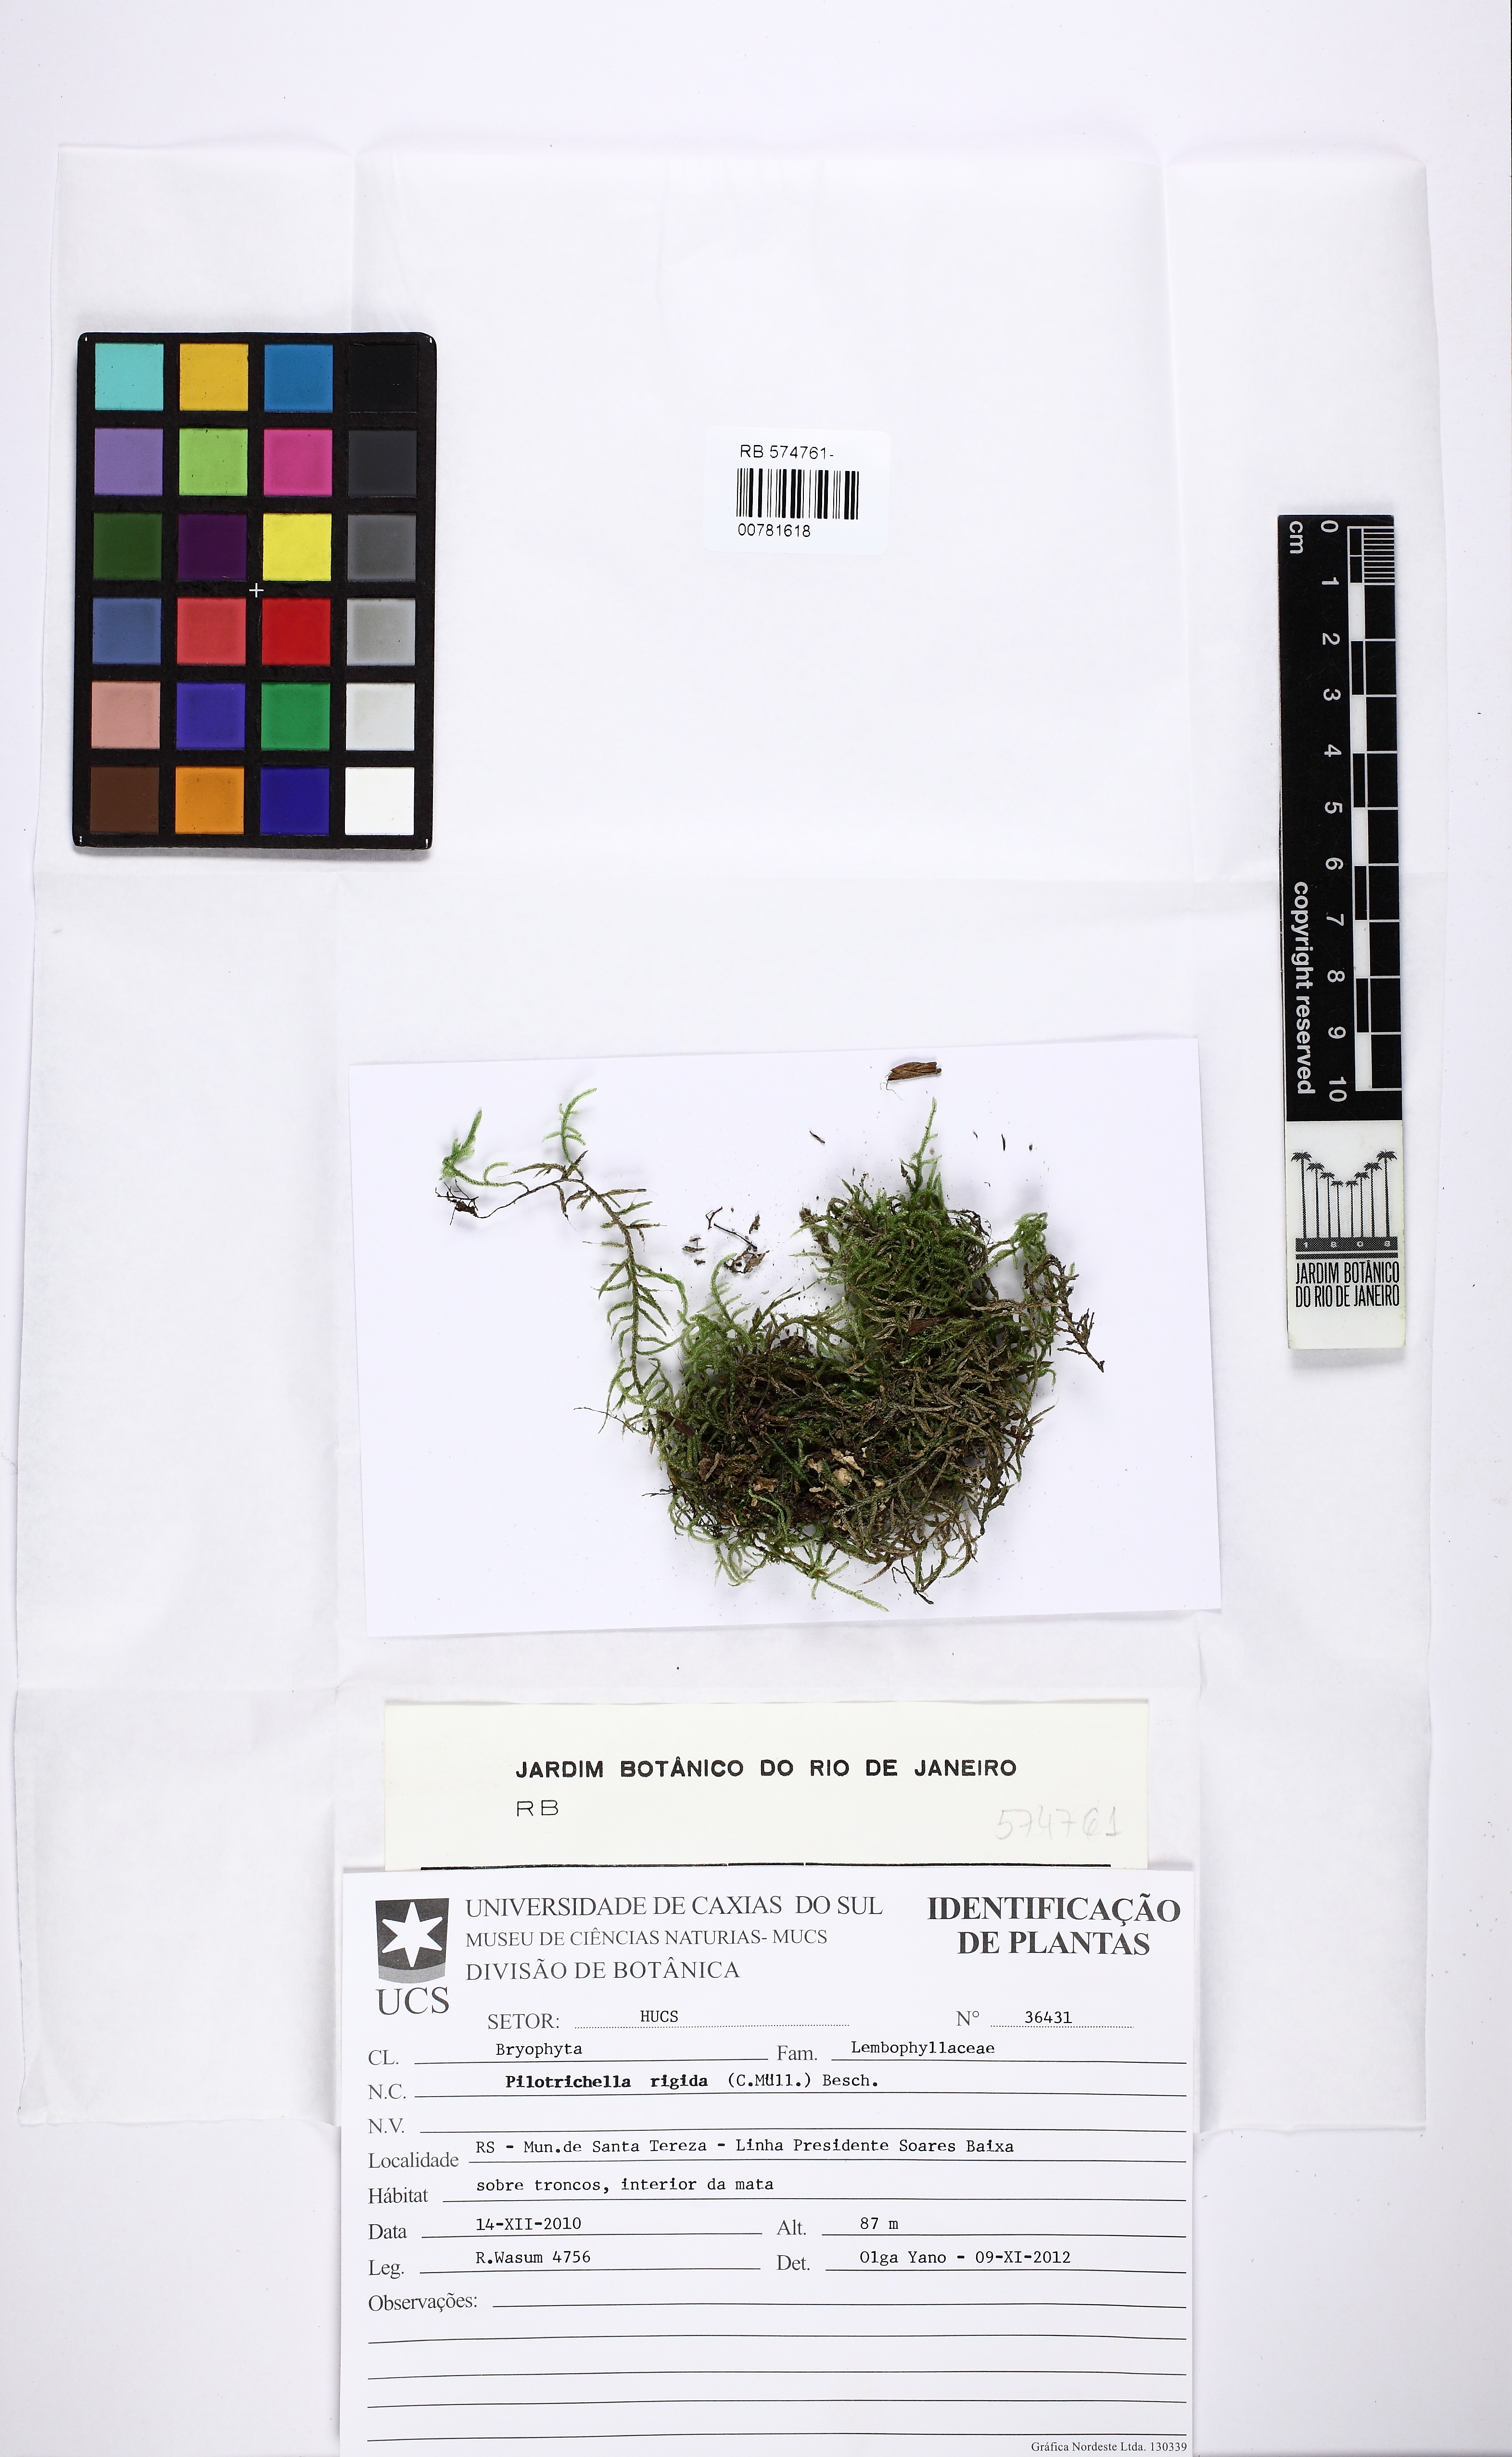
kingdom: Plantae
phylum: Bryophyta
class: Bryopsida
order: Hypnales
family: Orthostichellaceae
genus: Orthostichella
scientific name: Orthostichella rigida
